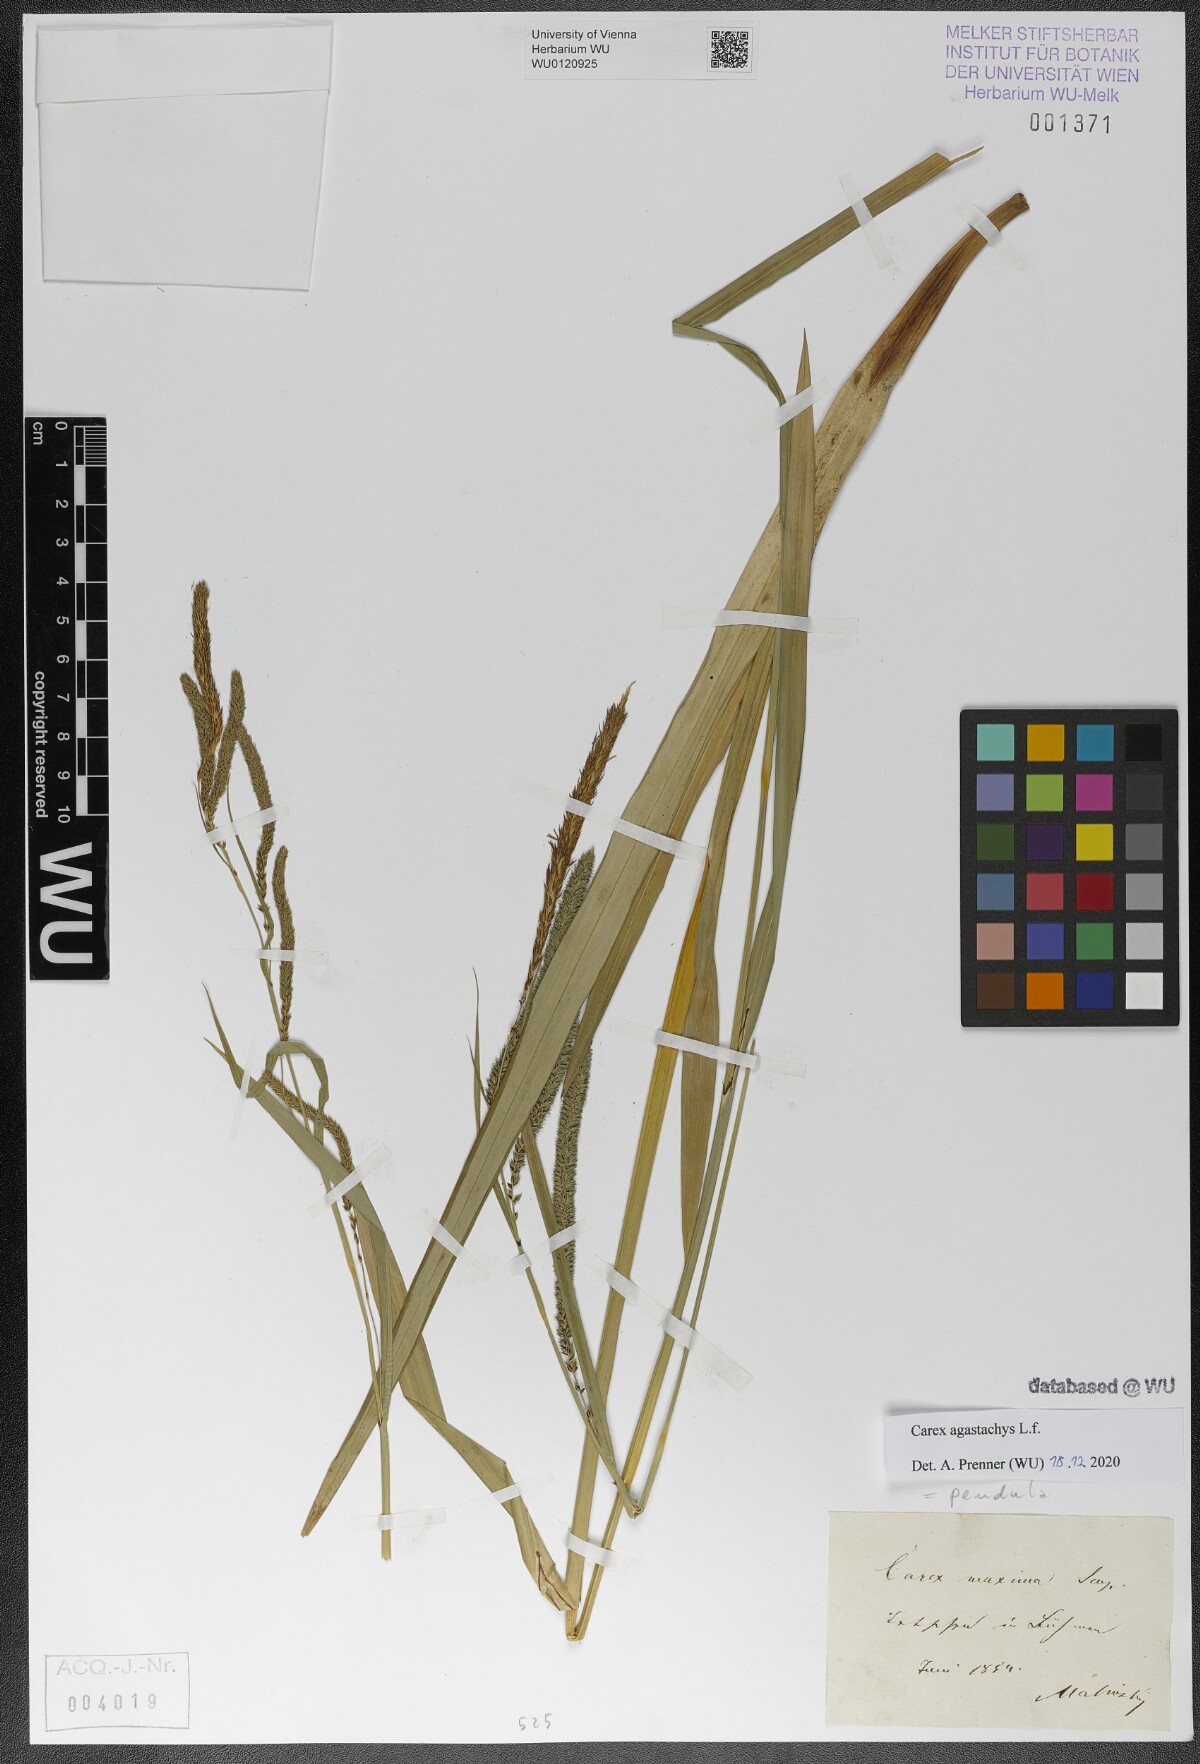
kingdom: Plantae
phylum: Tracheophyta
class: Liliopsida
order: Poales
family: Cyperaceae
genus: Carex
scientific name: Carex pendula
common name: Pendulous sedge
